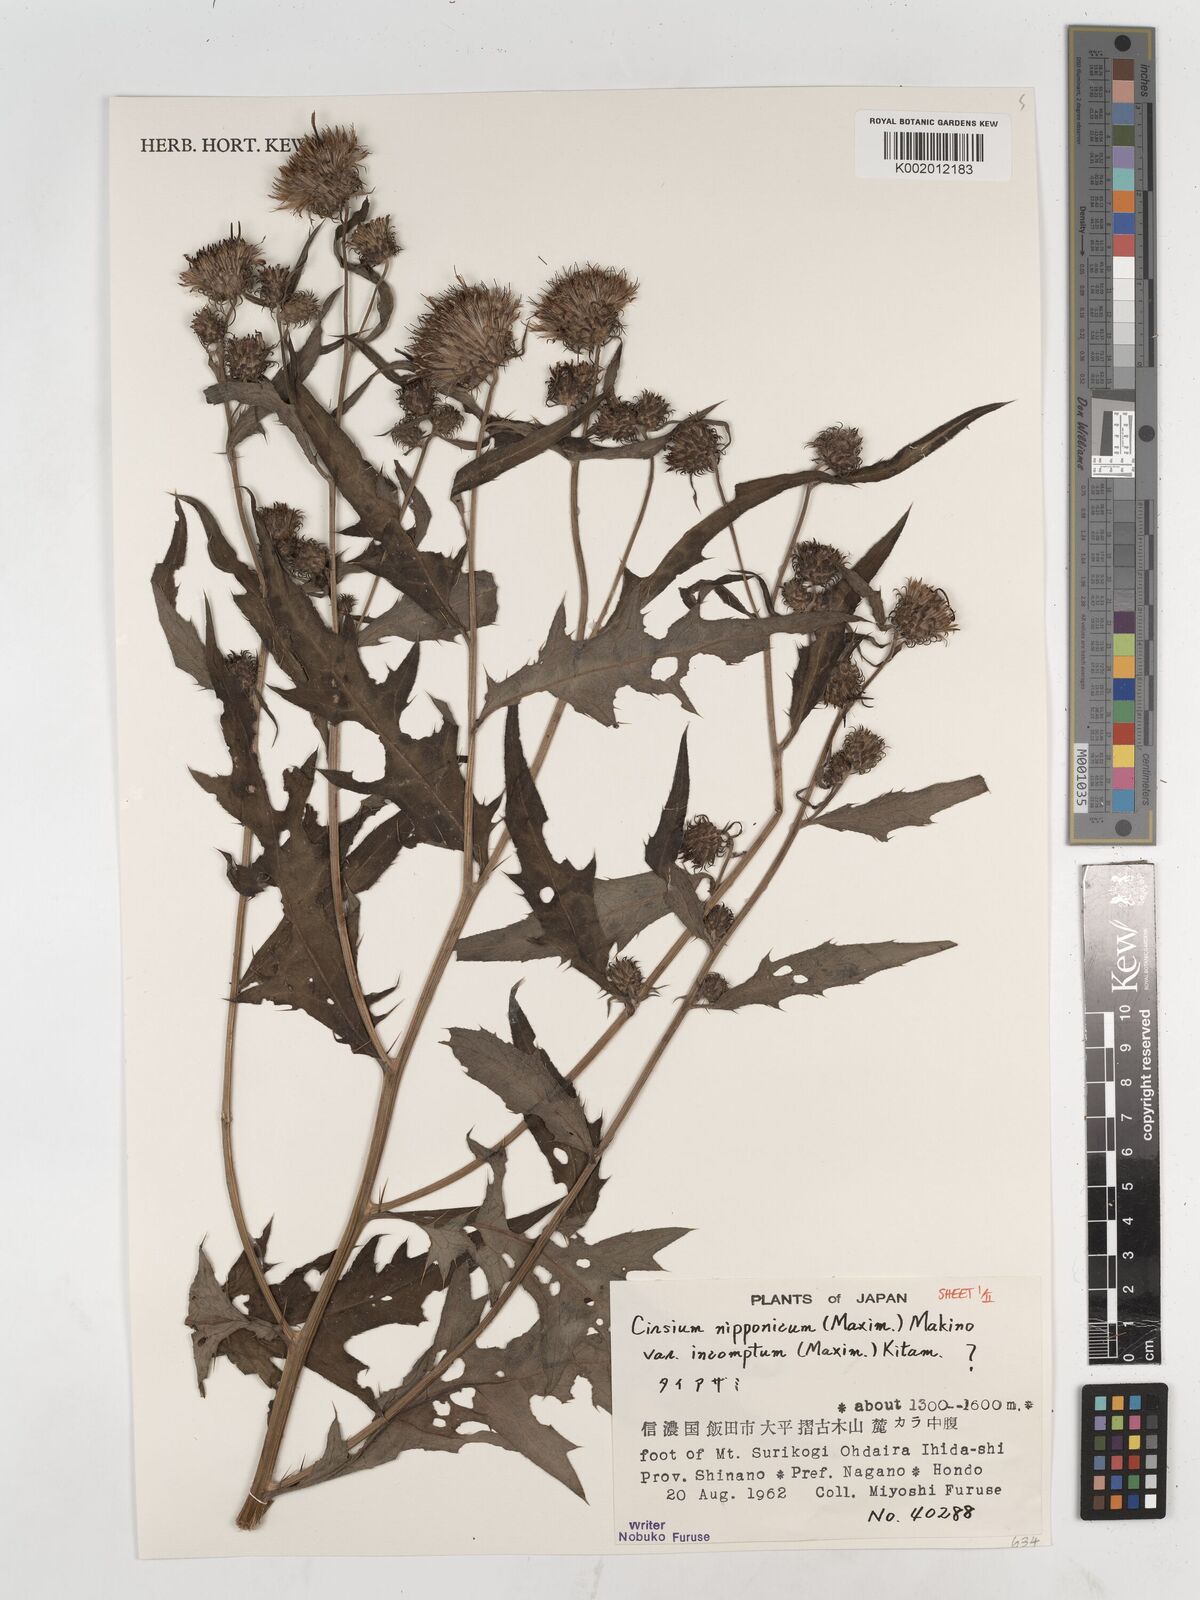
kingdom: Plantae
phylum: Tracheophyta
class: Magnoliopsida
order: Asterales
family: Asteraceae
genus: Cirsium
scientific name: Cirsium nipponicum
